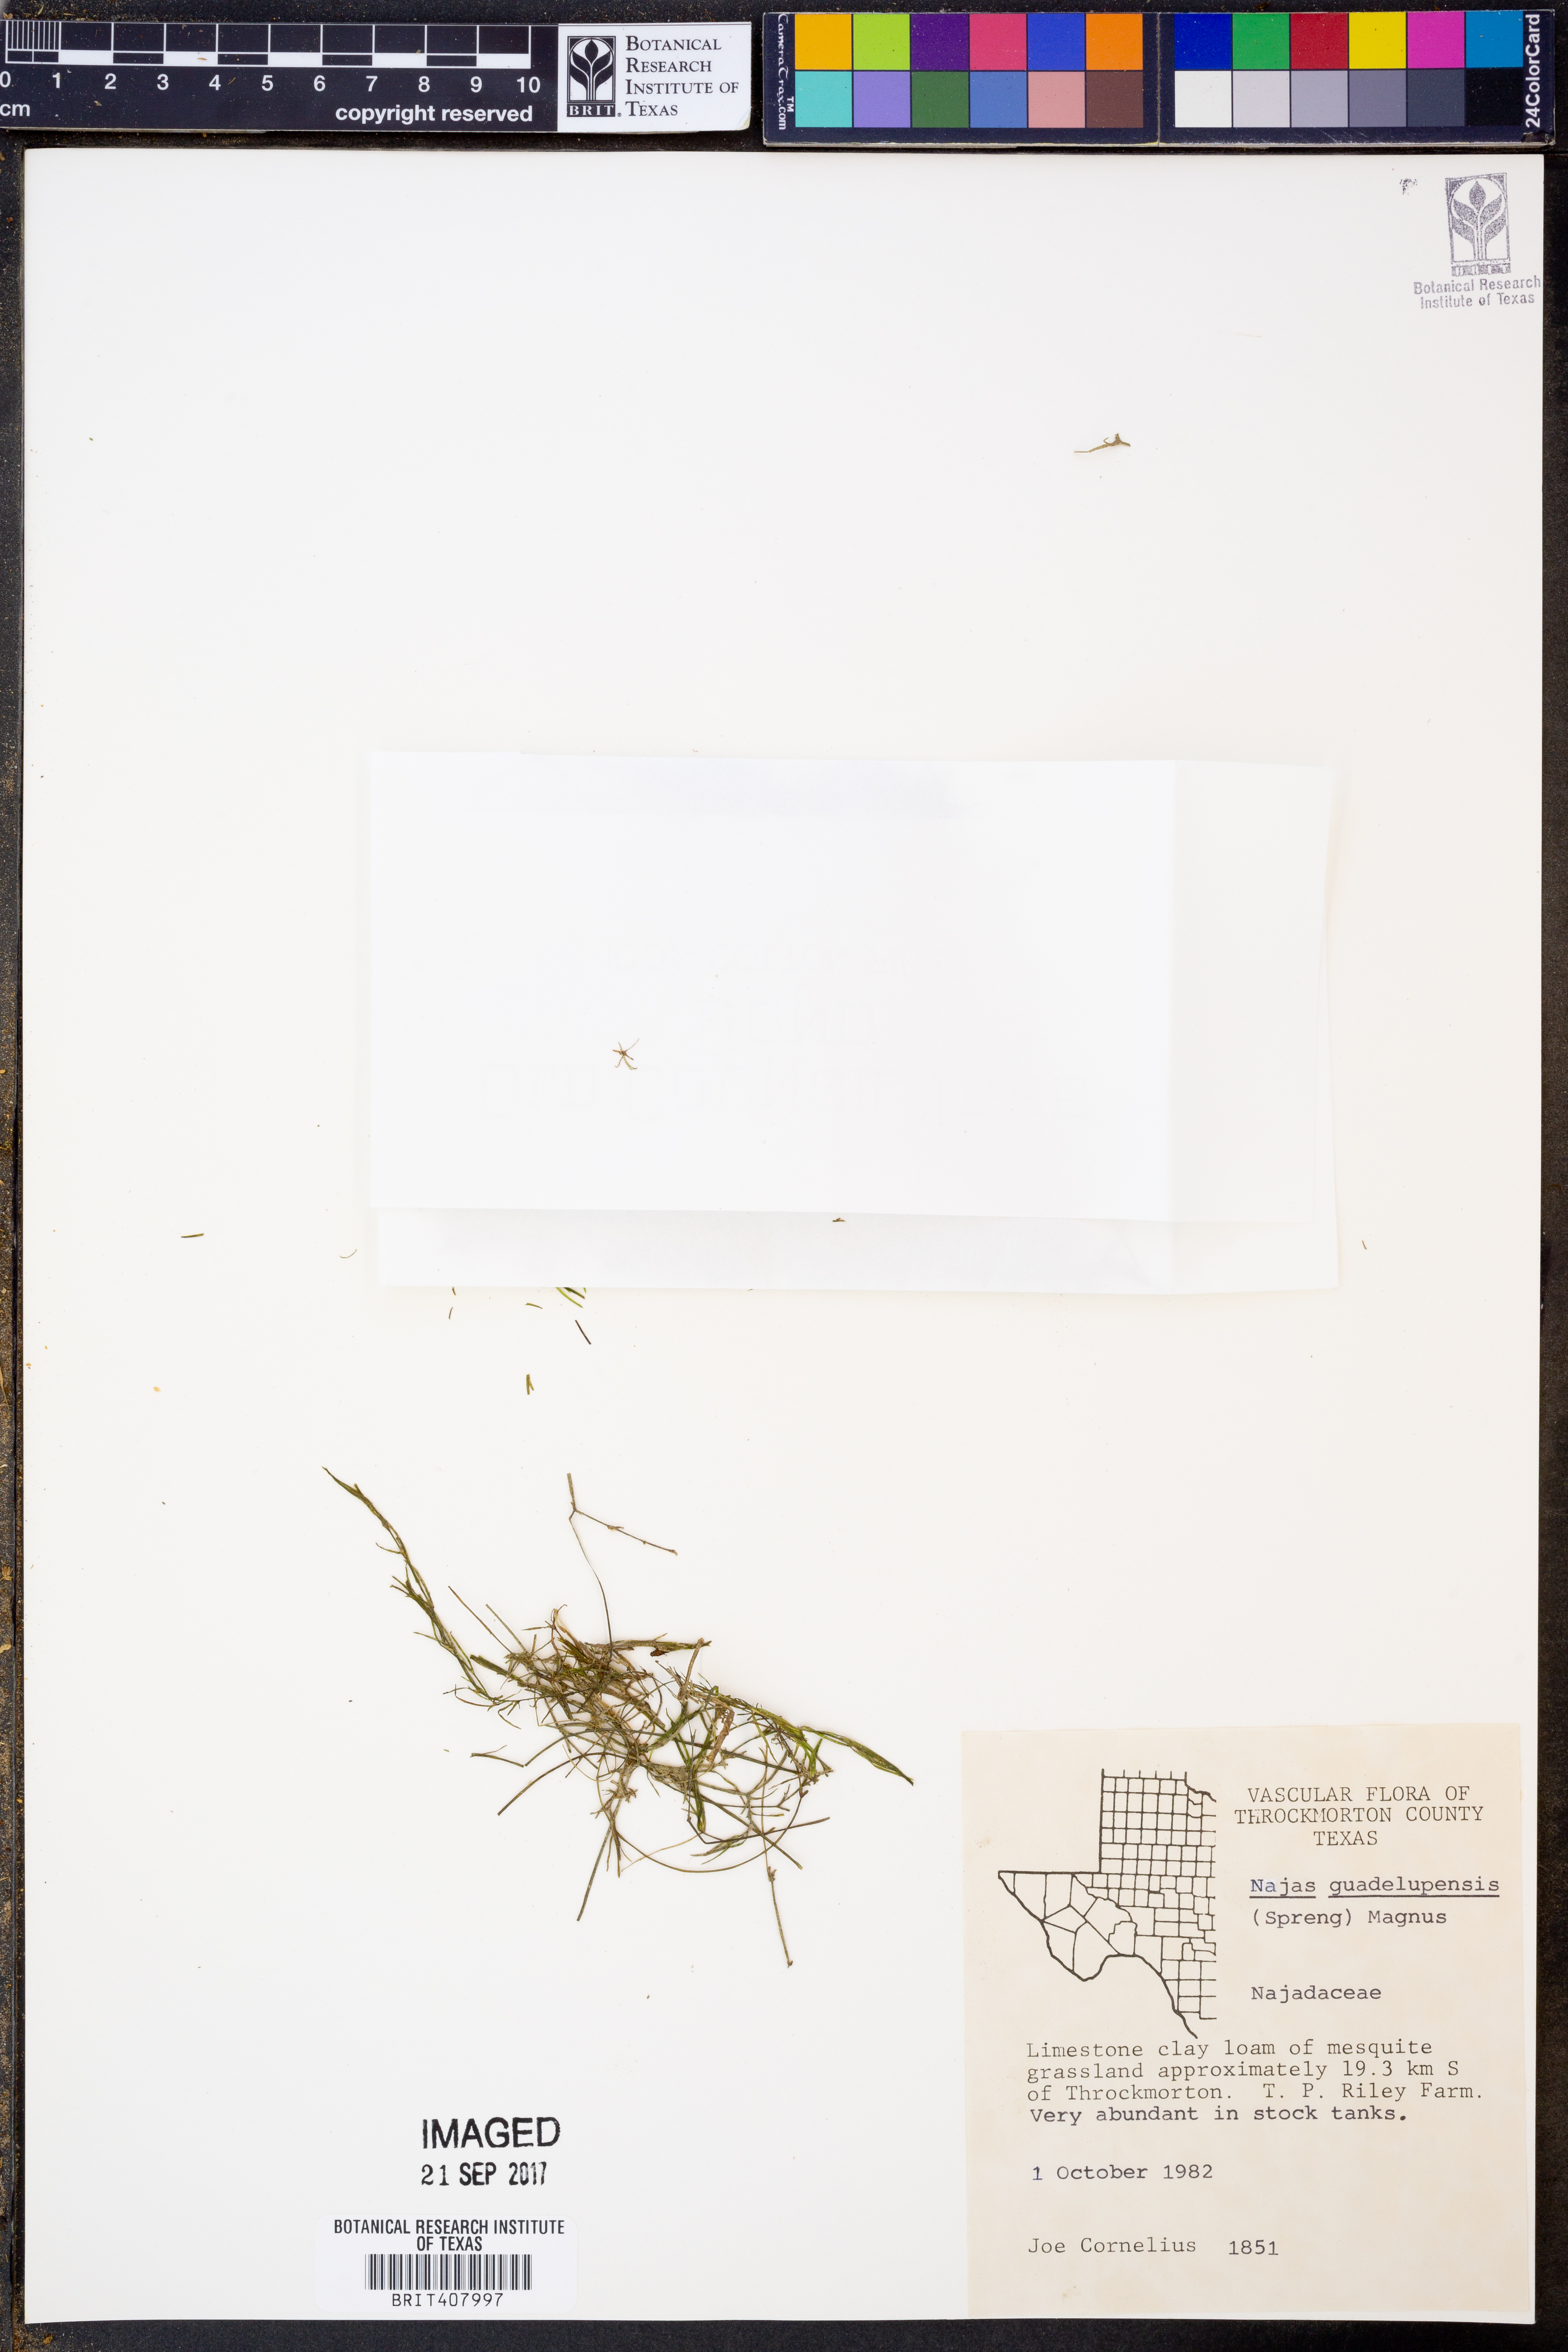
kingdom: Plantae
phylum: Tracheophyta
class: Liliopsida
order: Alismatales
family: Hydrocharitaceae
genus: Najas
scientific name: Najas guadalupensis
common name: Southern naiad
